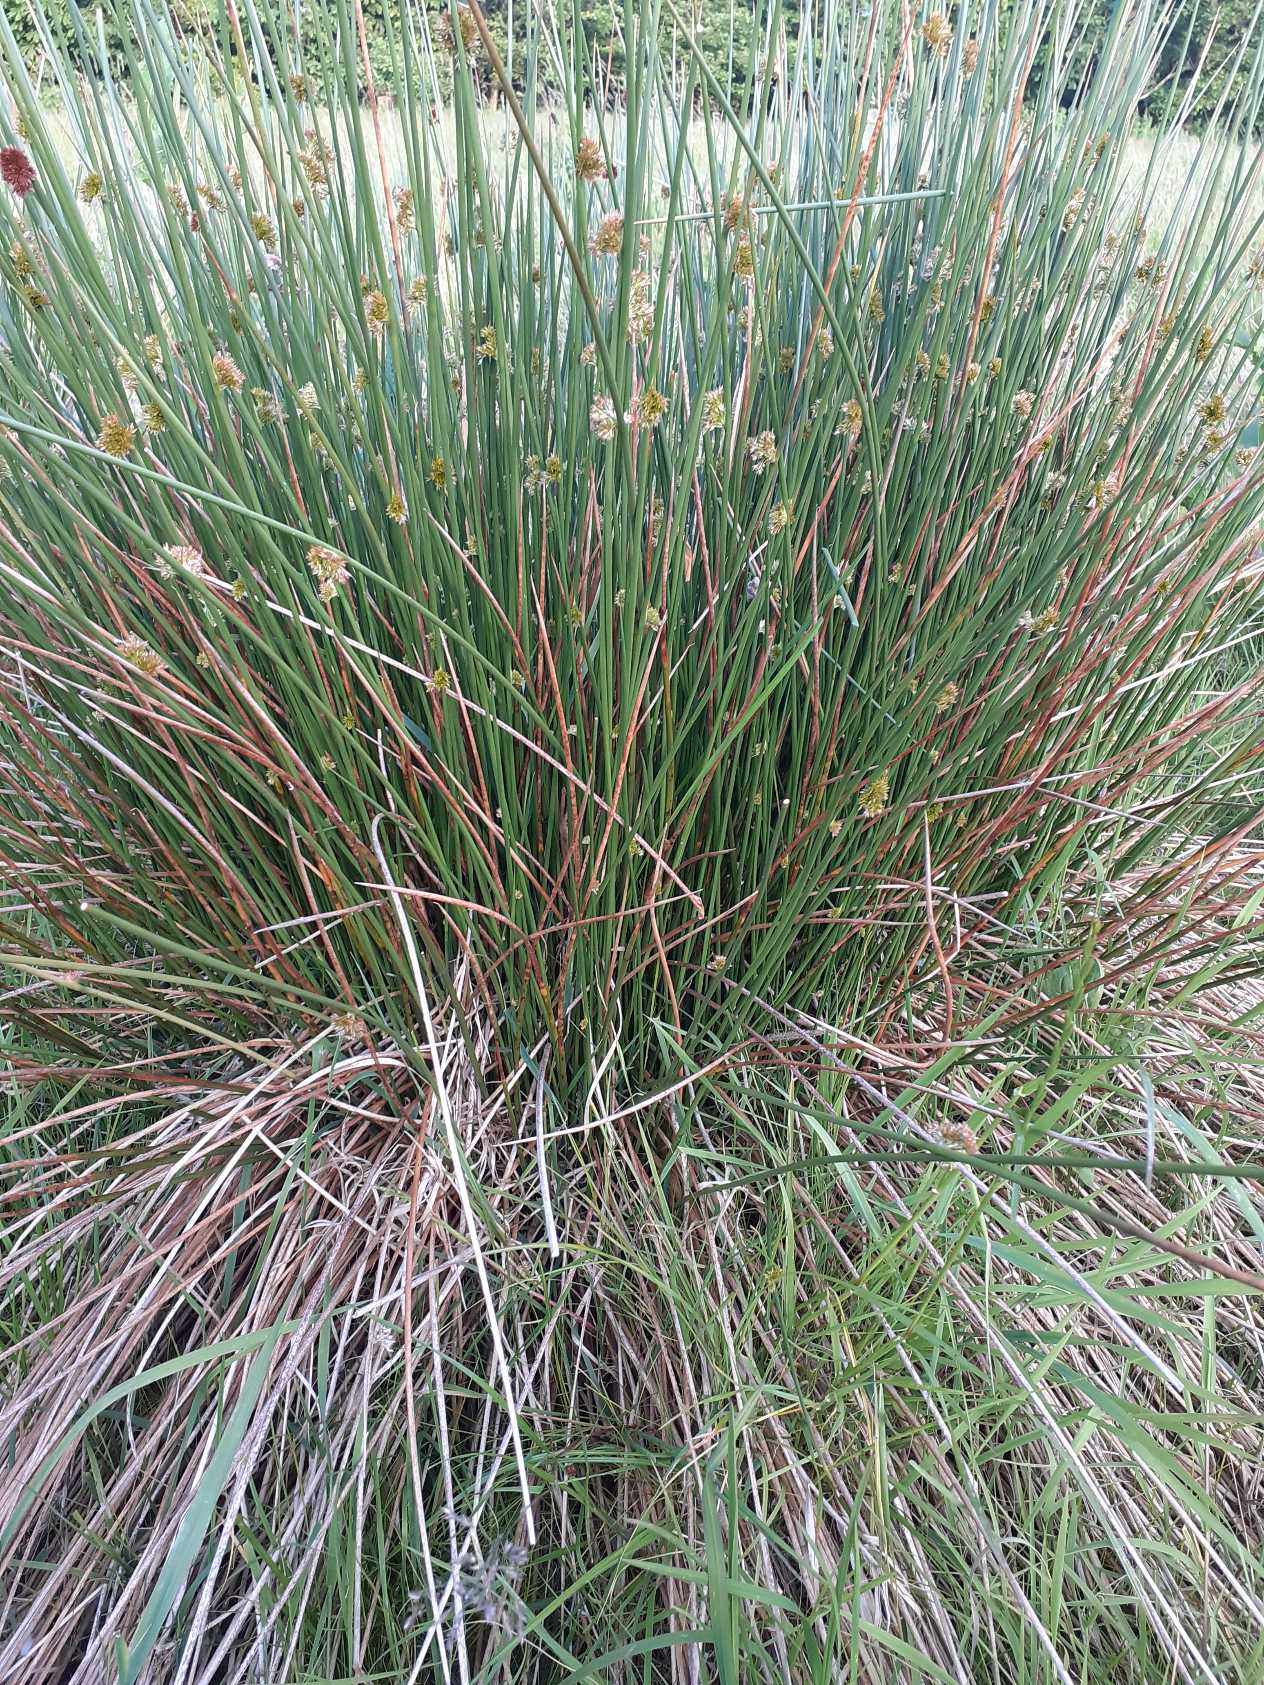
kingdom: Plantae
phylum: Tracheophyta
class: Liliopsida
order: Poales
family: Juncaceae
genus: Juncus
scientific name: Juncus effusus
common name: Lyse-siv
